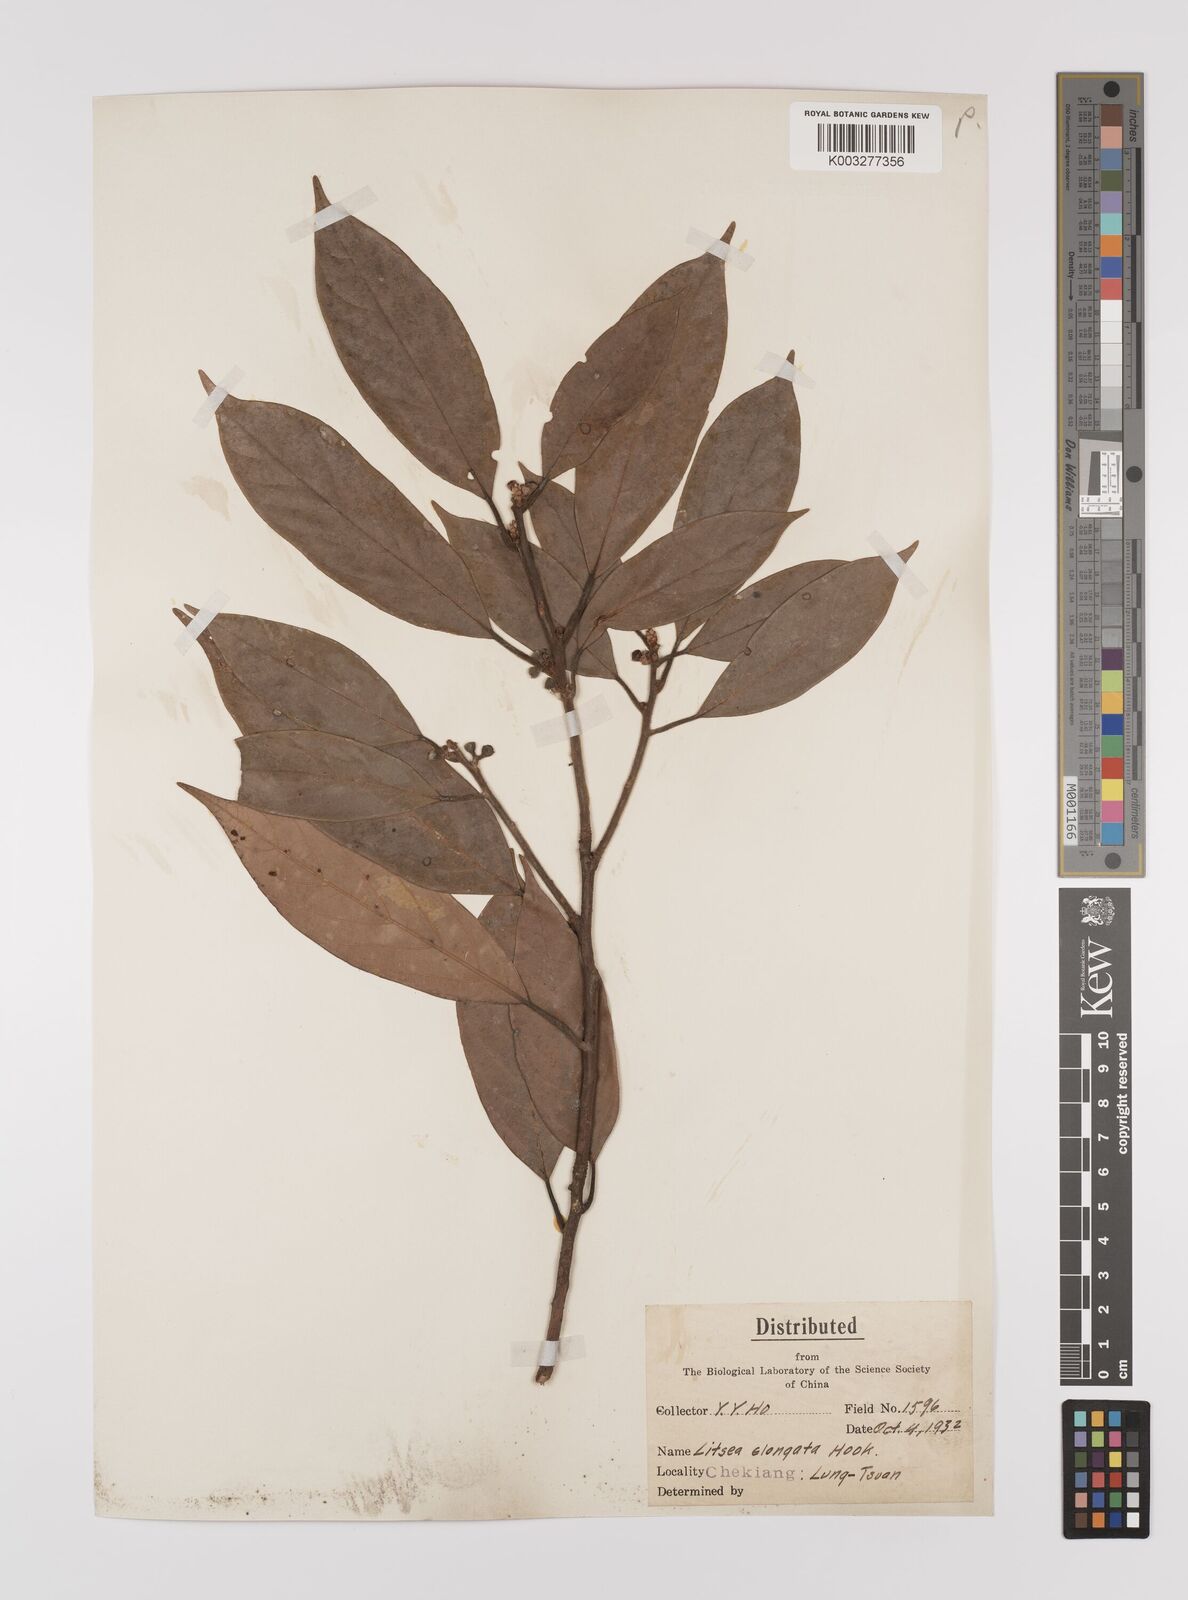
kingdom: Plantae
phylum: Tracheophyta
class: Magnoliopsida
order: Laurales
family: Lauraceae
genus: Litsea
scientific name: Litsea elongata
